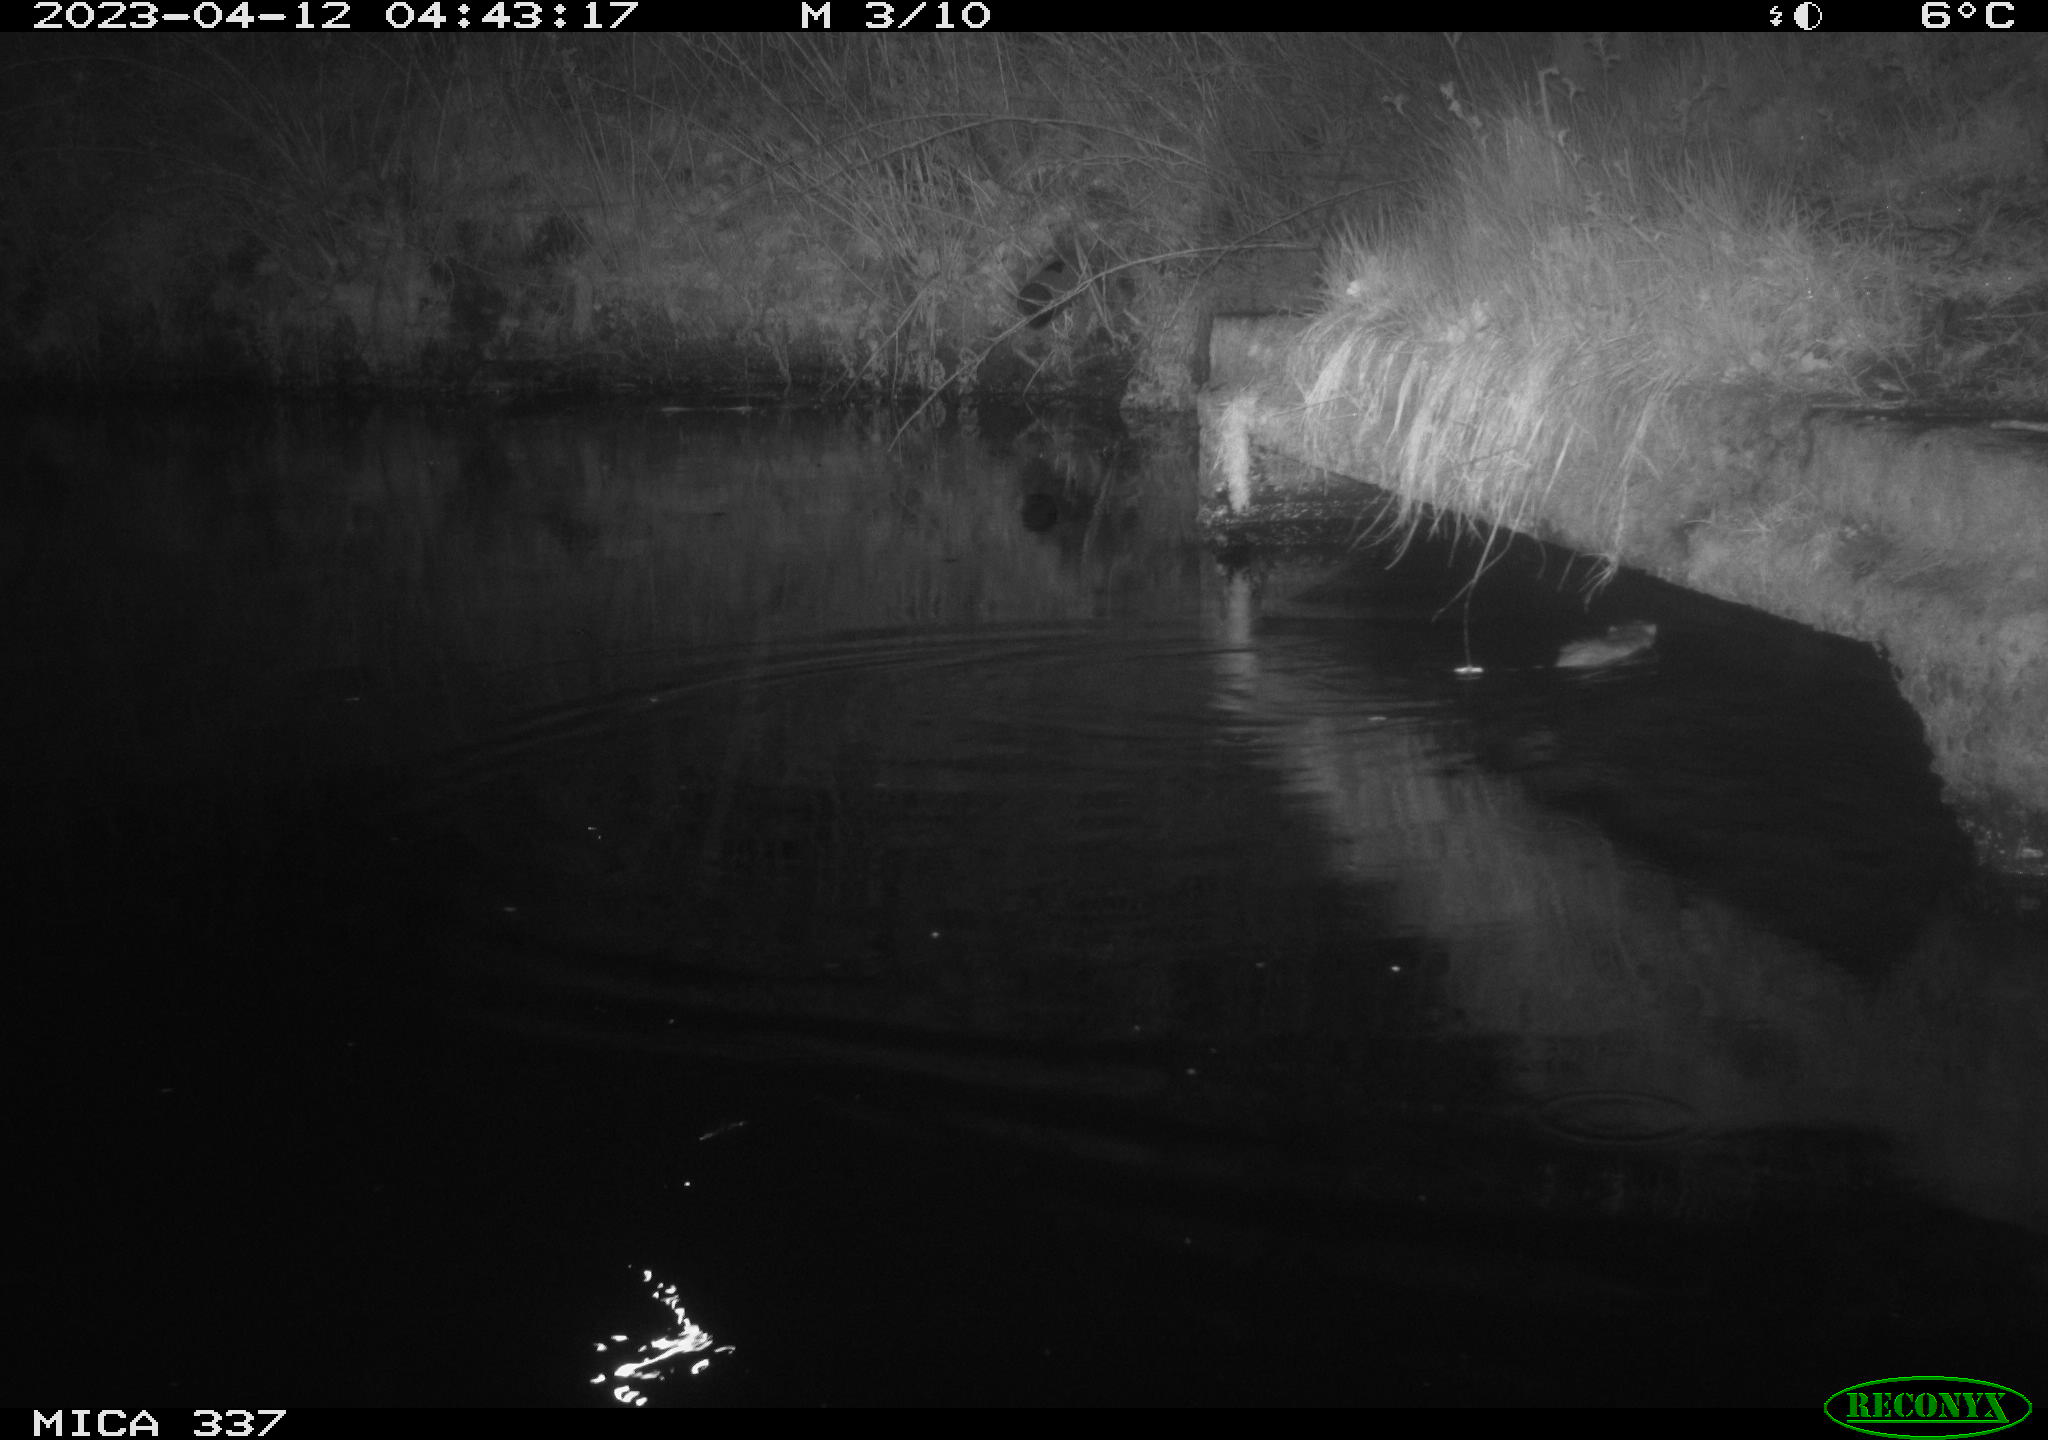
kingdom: Animalia
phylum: Chordata
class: Mammalia
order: Rodentia
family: Cricetidae
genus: Ondatra
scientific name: Ondatra zibethicus
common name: Muskrat
